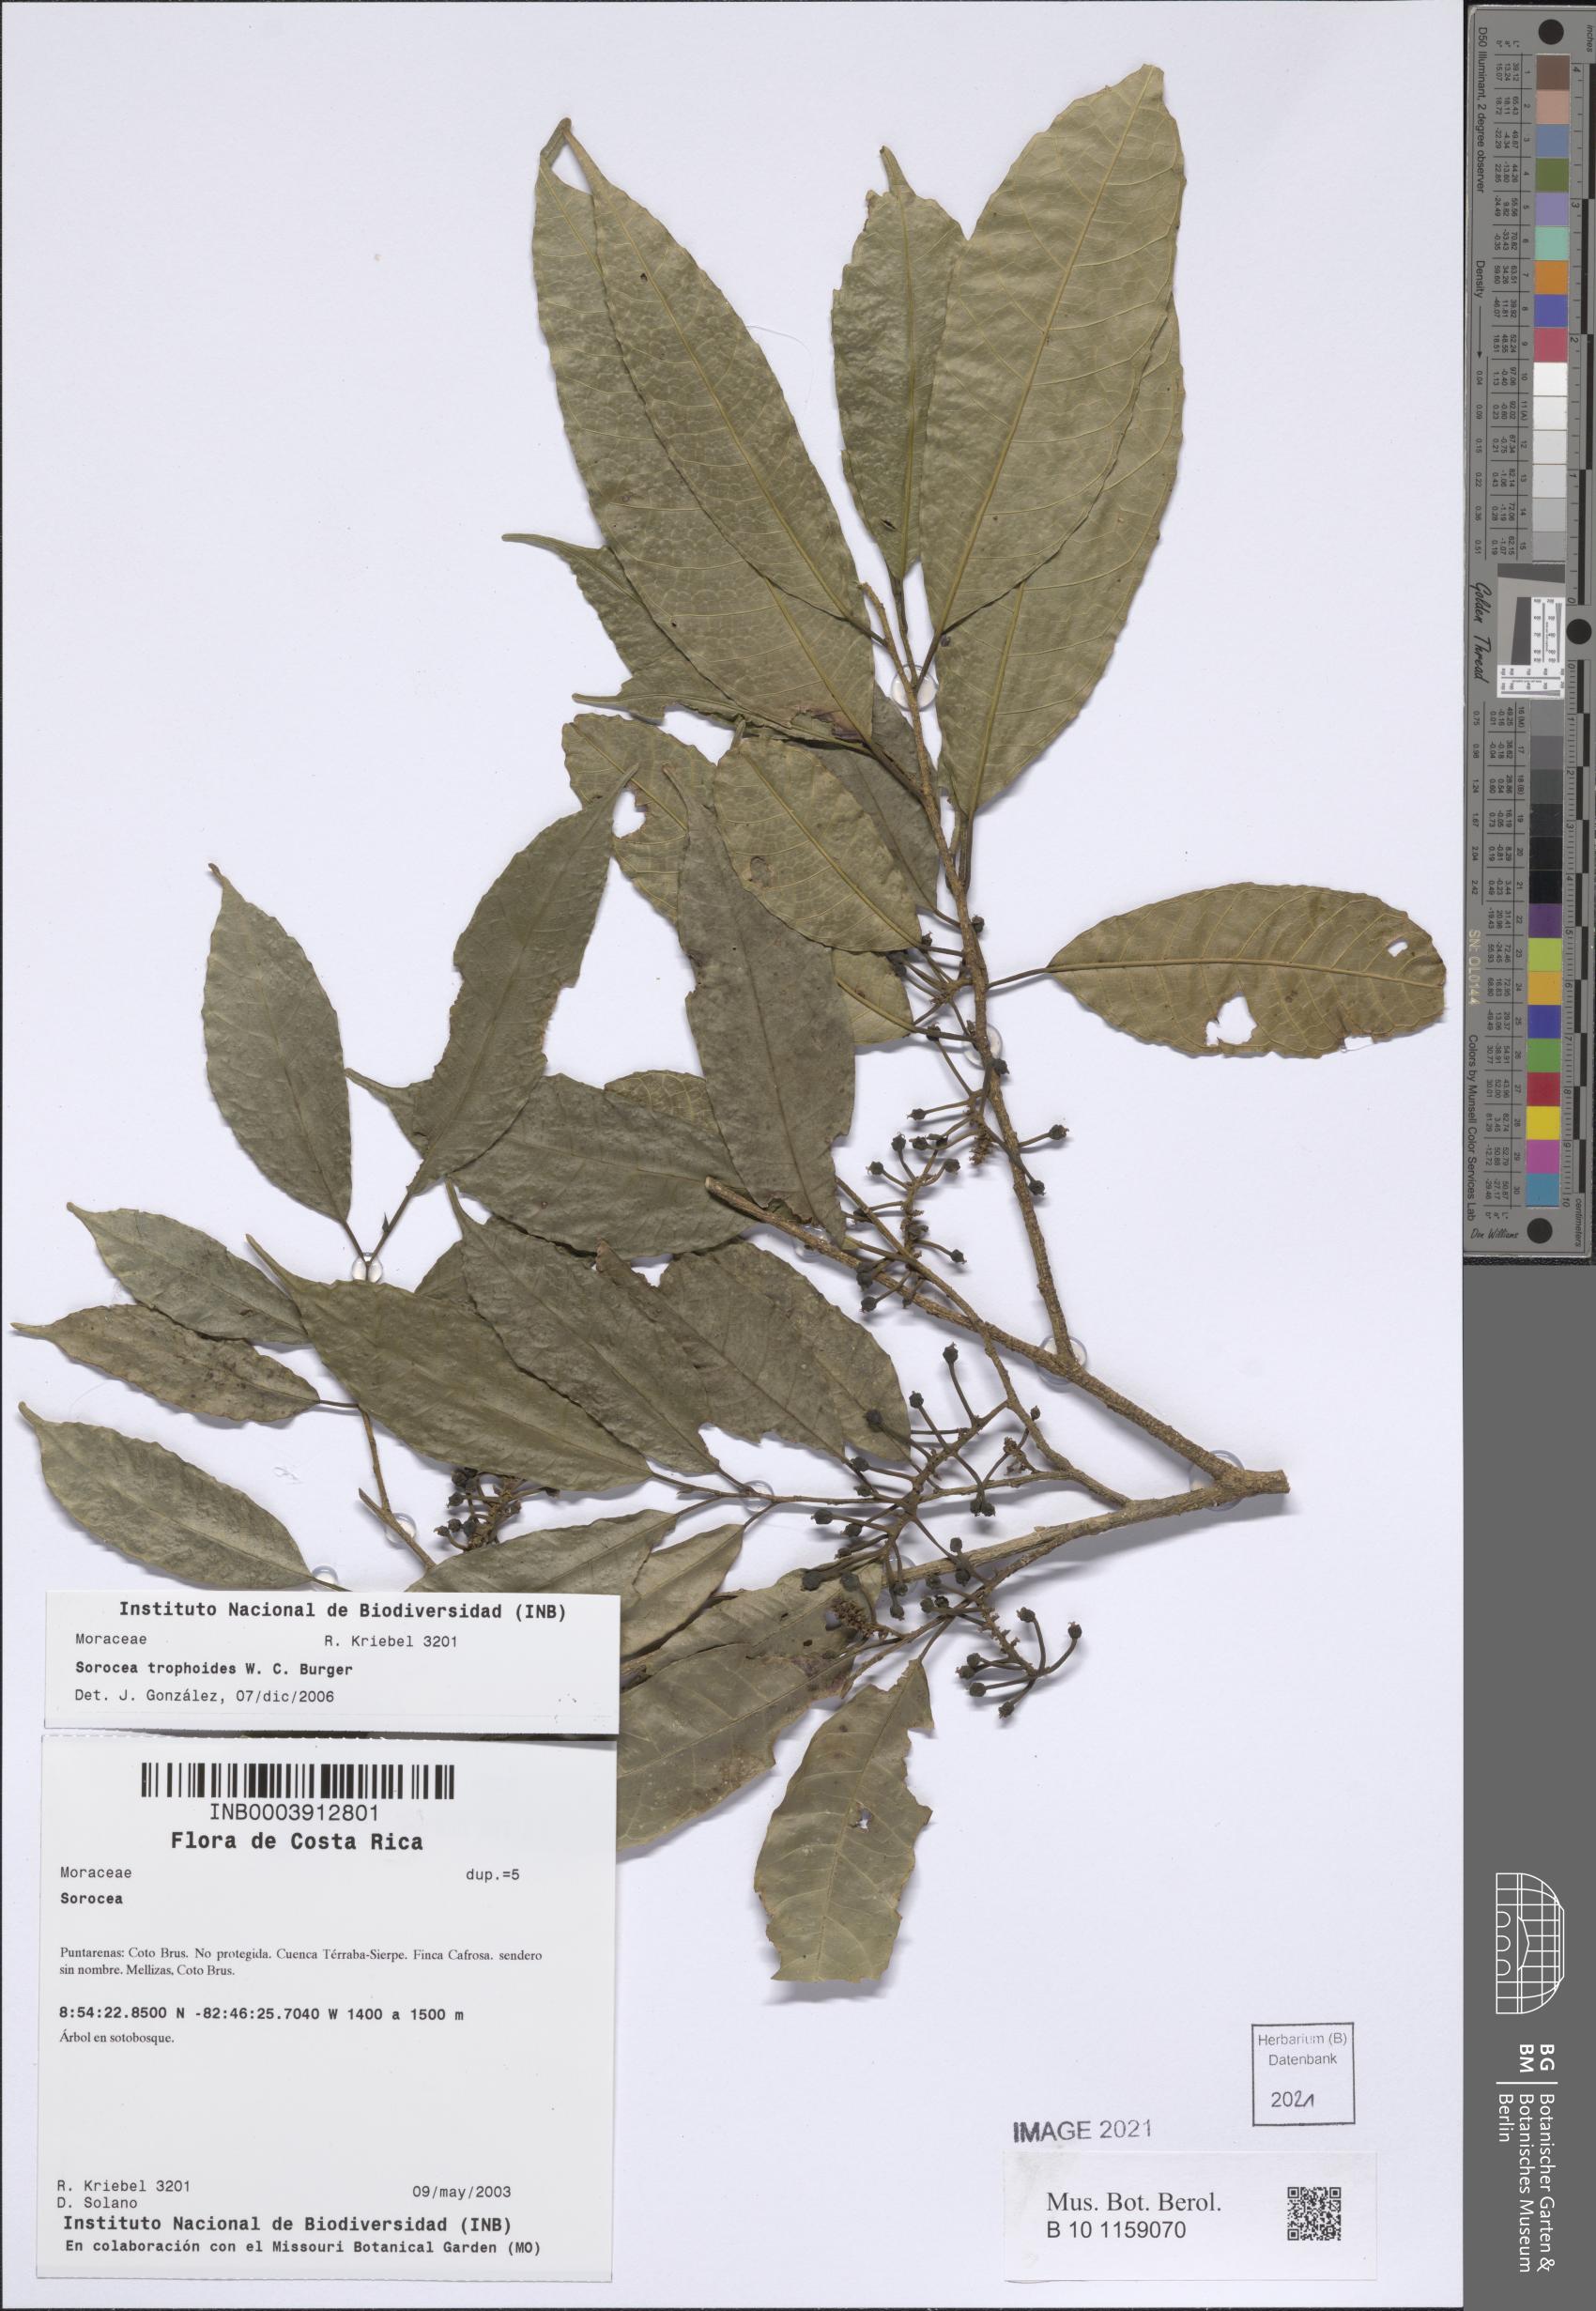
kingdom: Plantae
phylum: Tracheophyta
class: Magnoliopsida
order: Rosales
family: Moraceae
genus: Sorocea
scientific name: Sorocea trophoides
